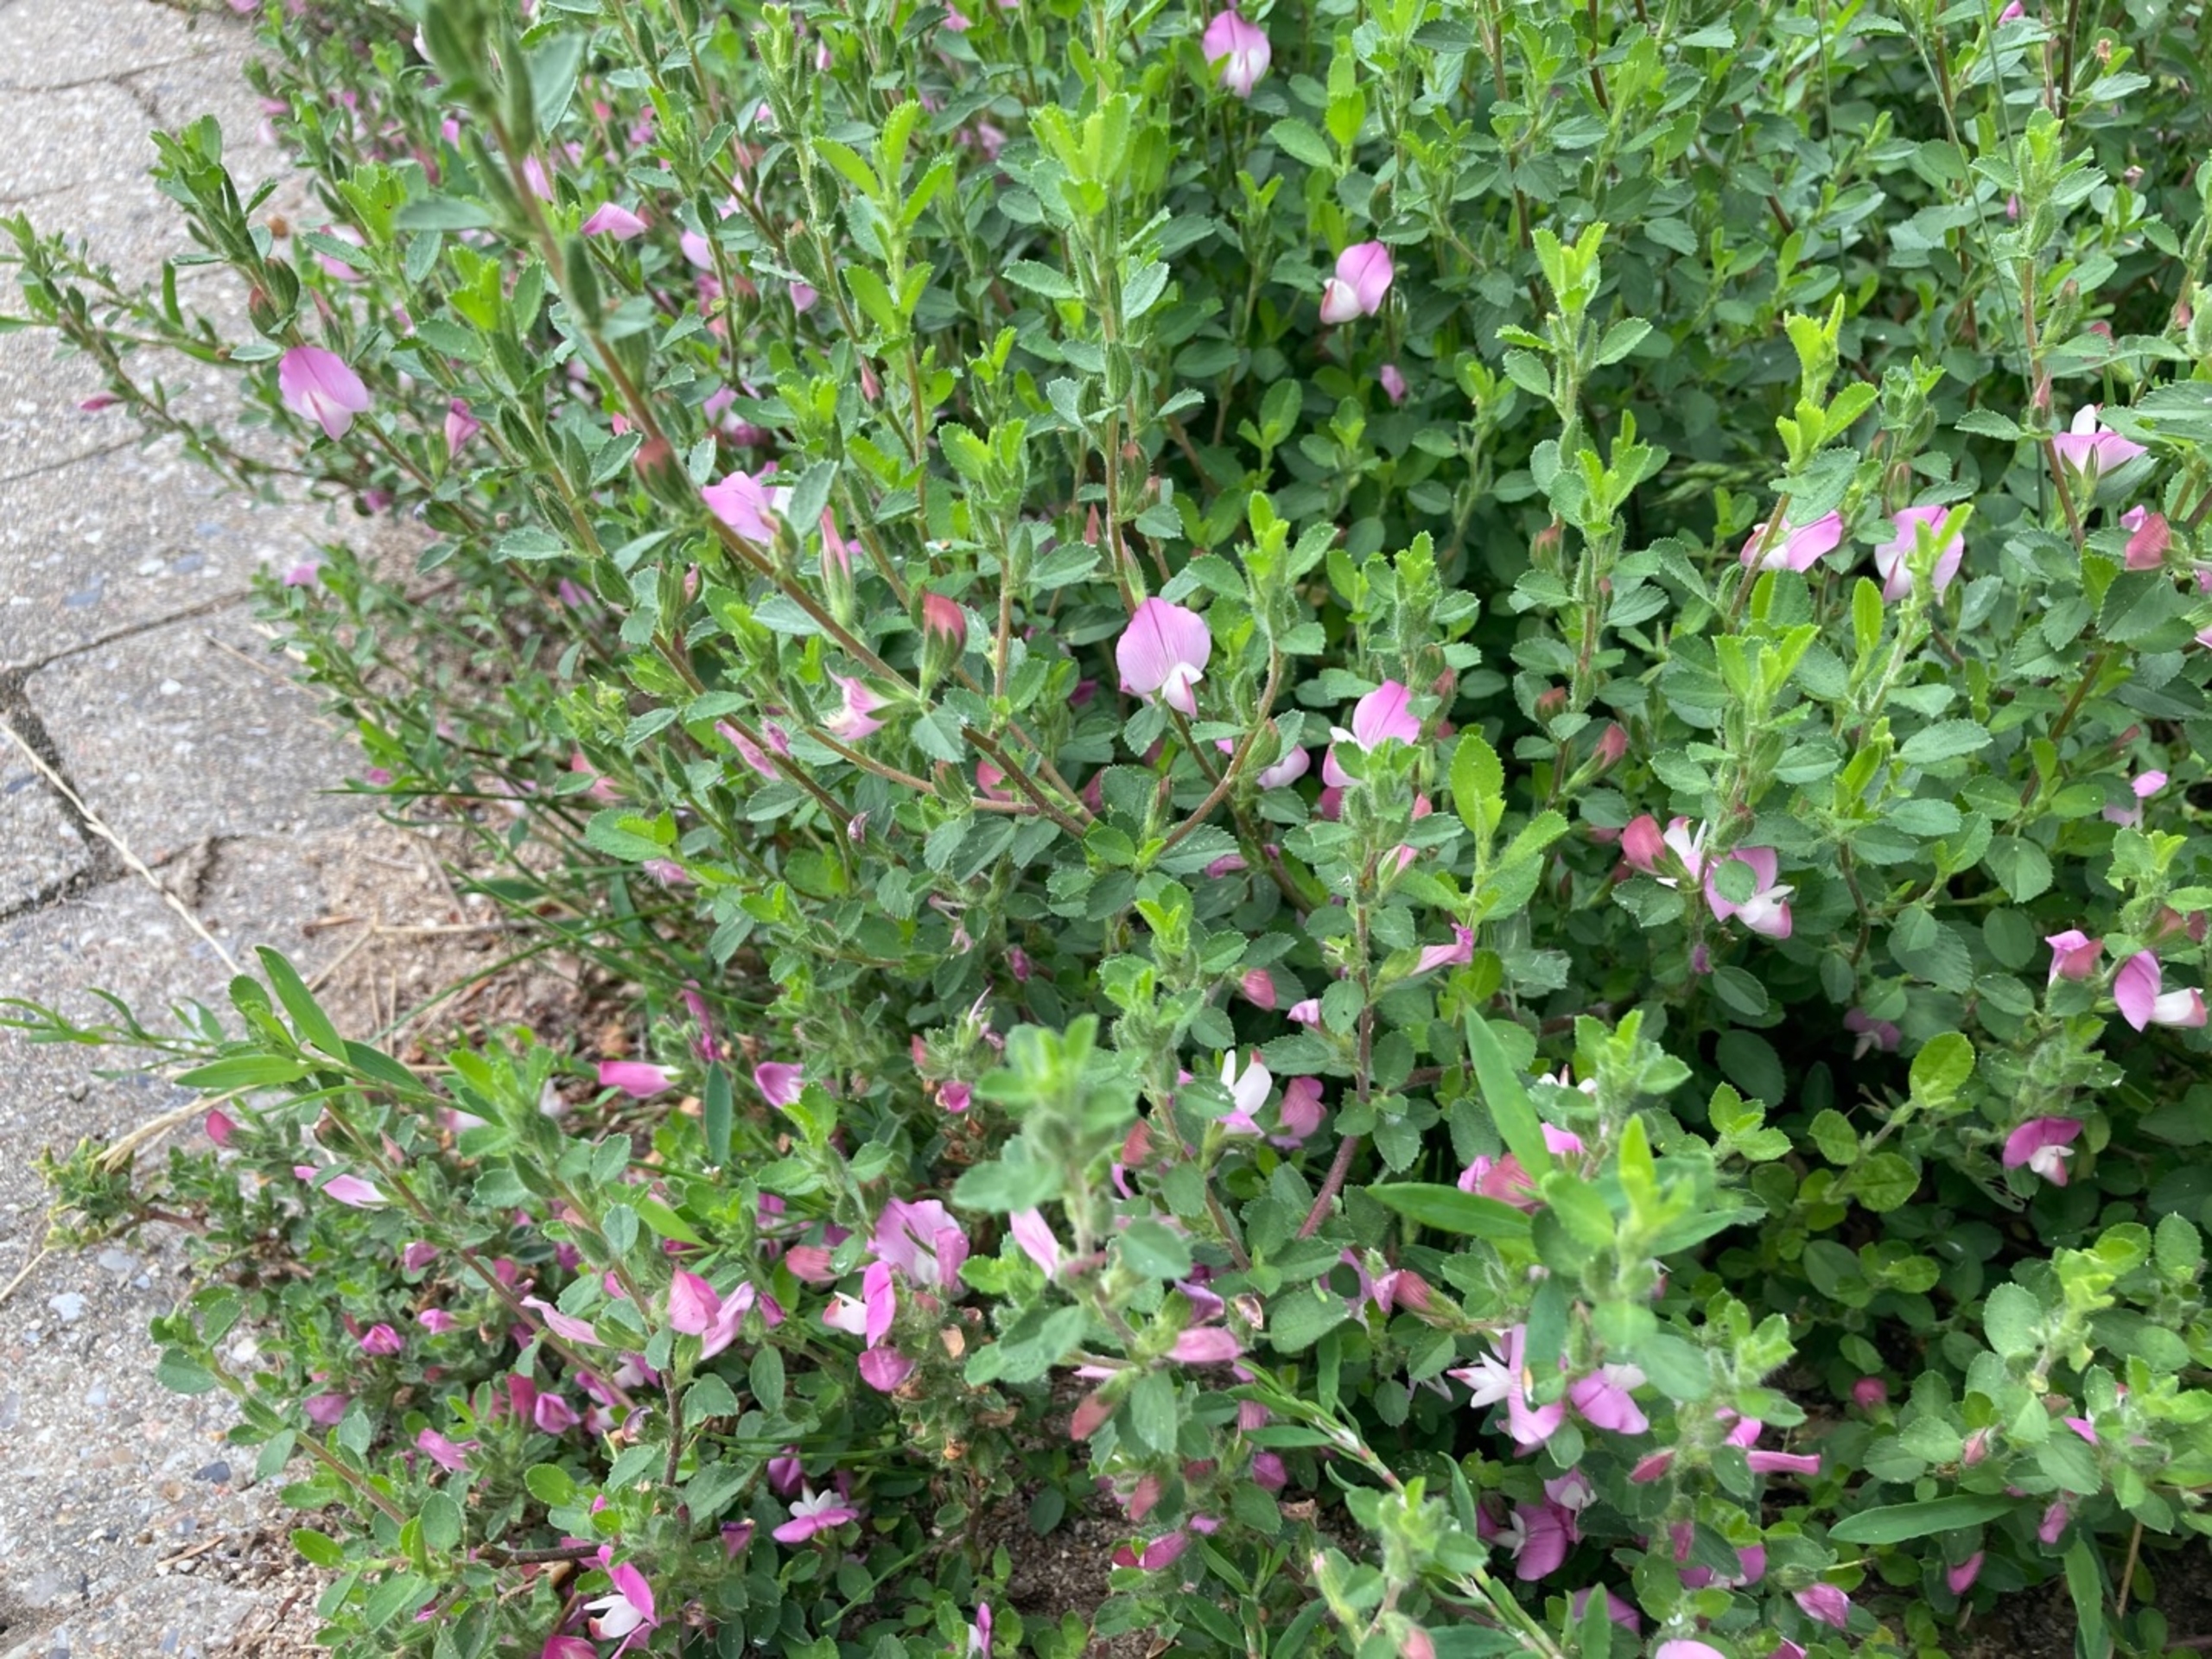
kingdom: Plantae
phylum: Tracheophyta
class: Magnoliopsida
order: Fabales
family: Fabaceae
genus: Ononis
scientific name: Ononis spinosa
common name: Mark-krageklo
